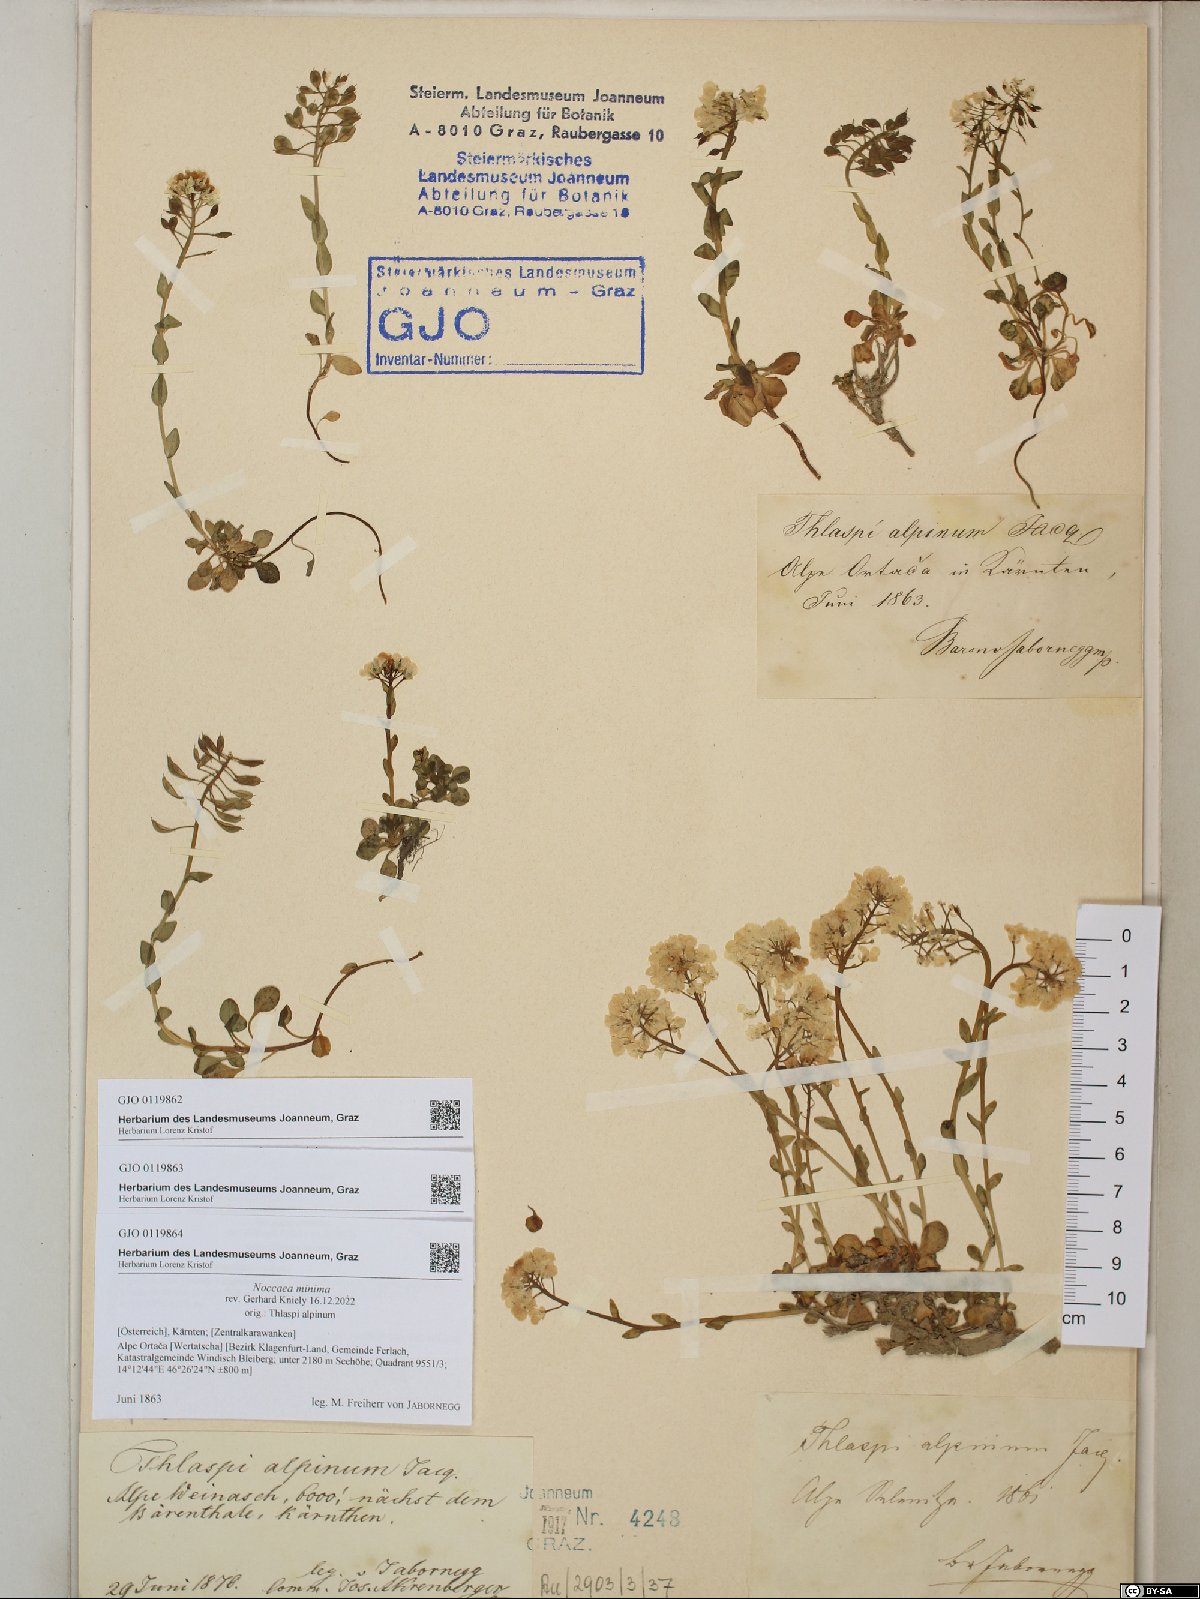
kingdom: Plantae
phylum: Tracheophyta
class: Magnoliopsida
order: Brassicales
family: Brassicaceae
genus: Noccaea
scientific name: Noccaea minima
